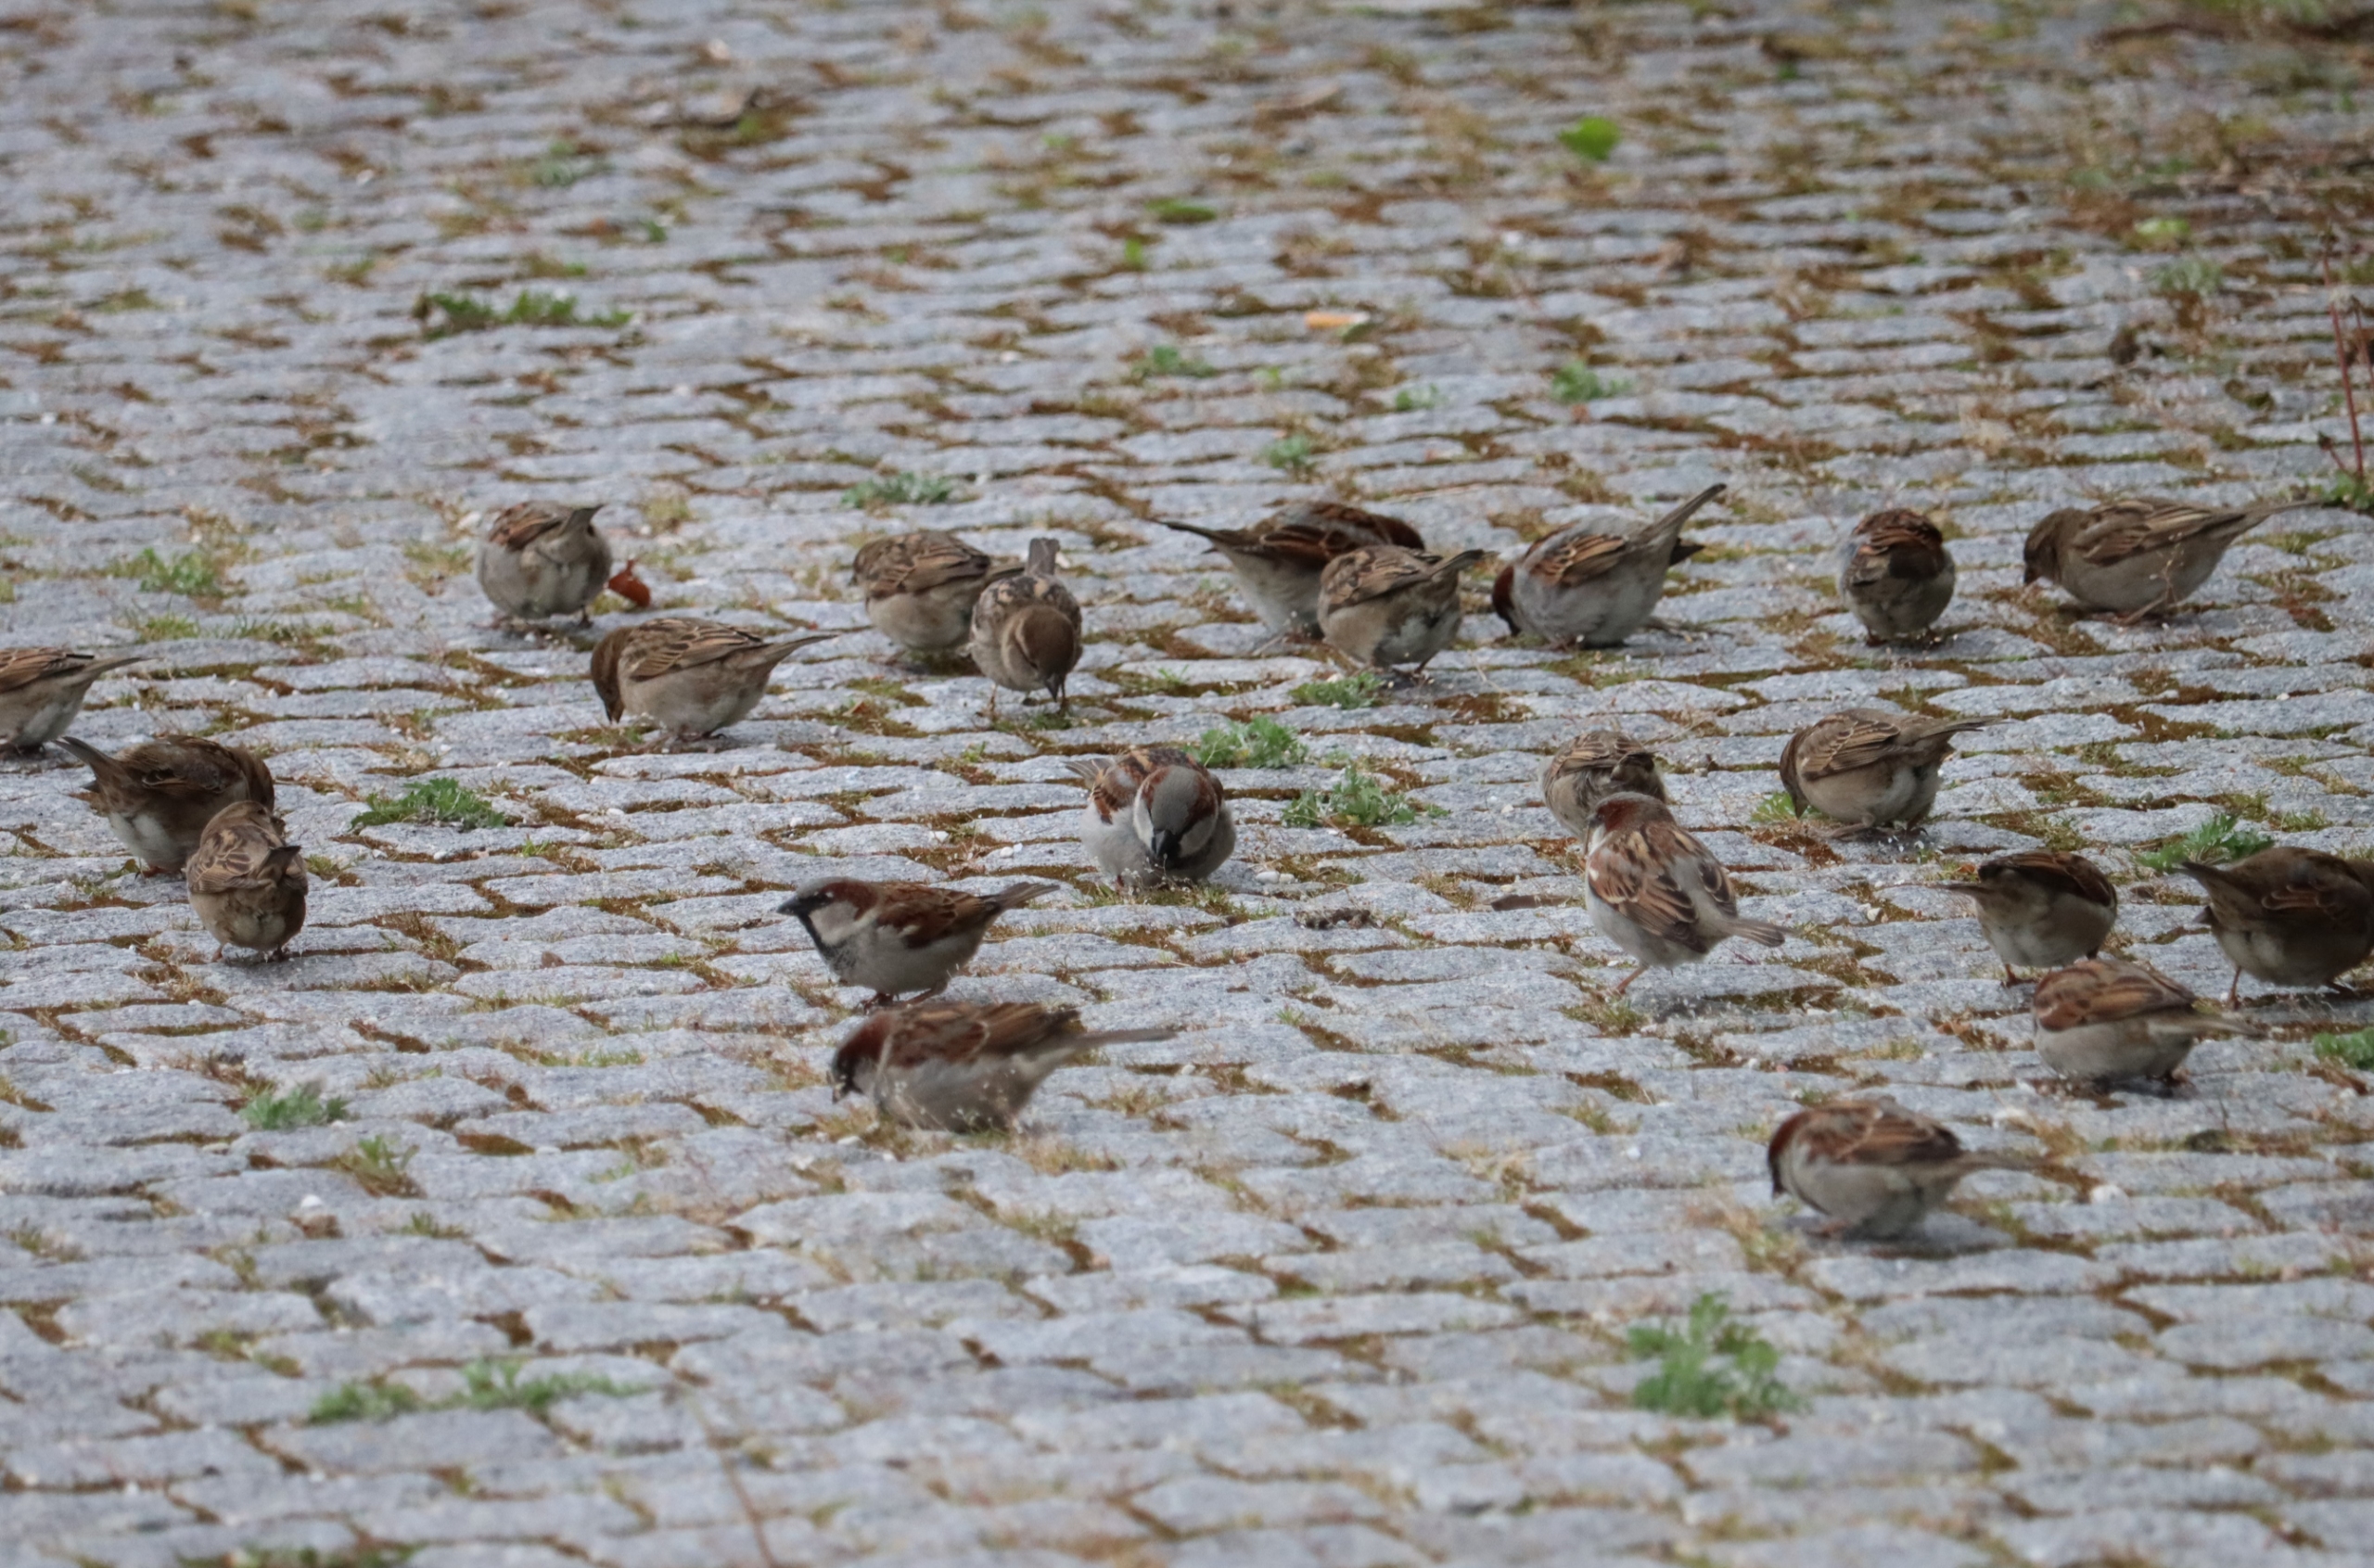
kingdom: Animalia
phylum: Chordata
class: Aves
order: Passeriformes
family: Passeridae
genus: Passer
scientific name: Passer domesticus
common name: Gråspurv
